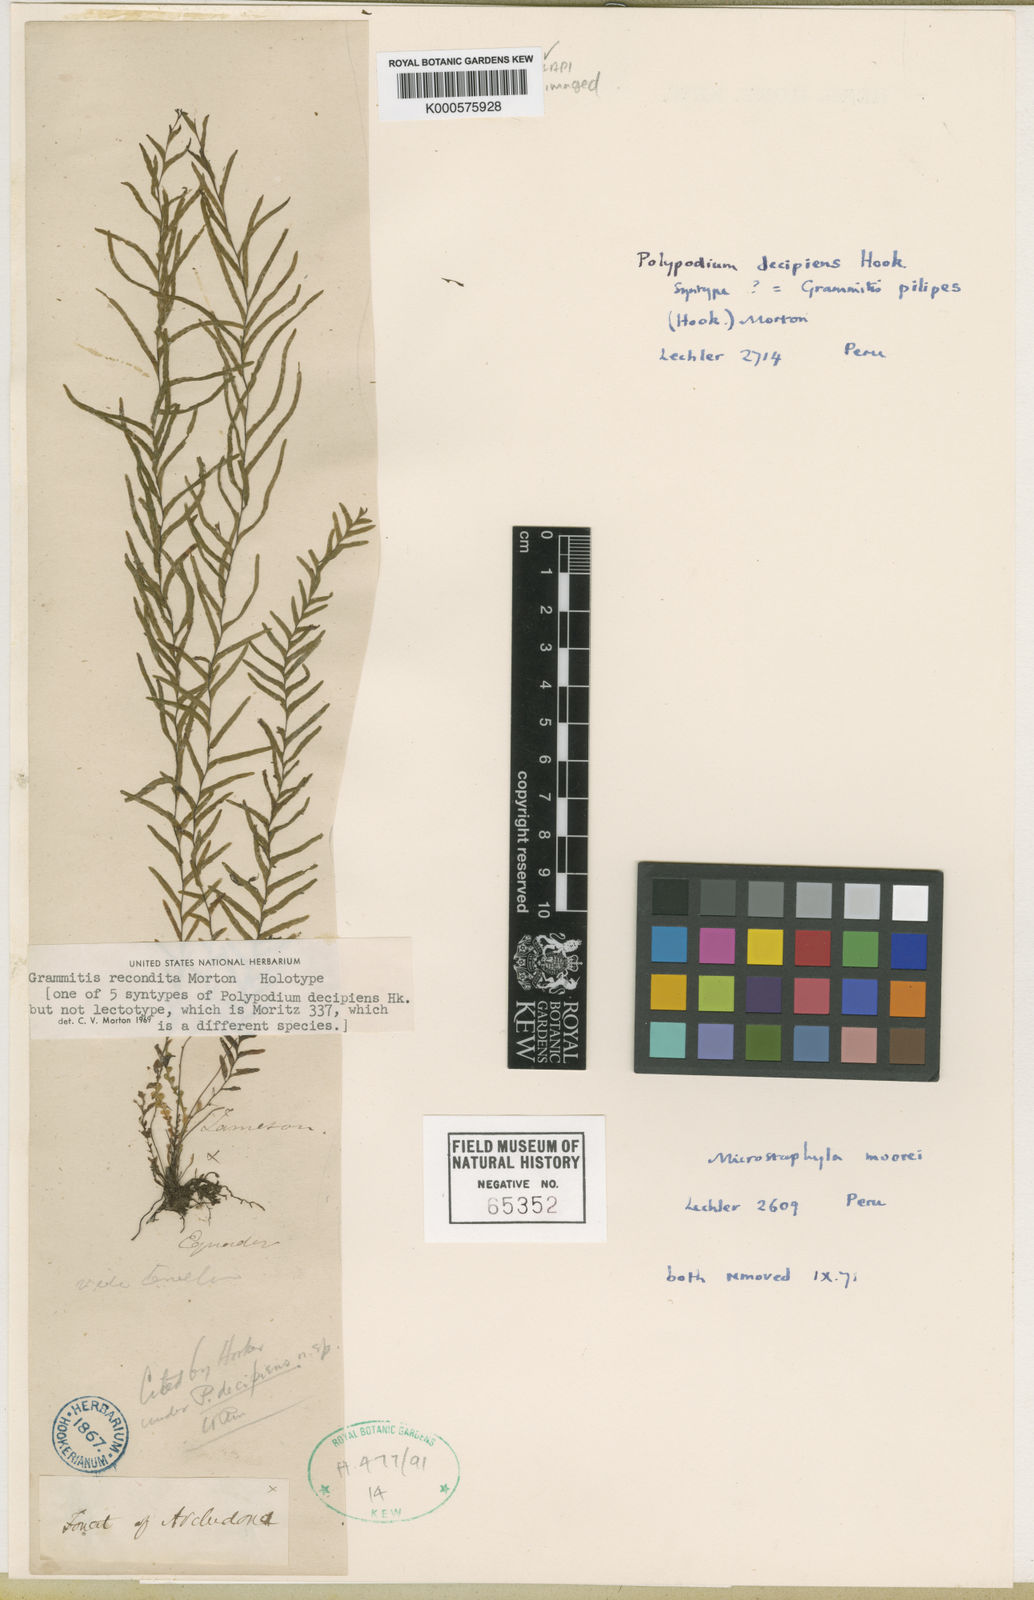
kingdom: Plantae
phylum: Tracheophyta
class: Polypodiopsida
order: Polypodiales
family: Polypodiaceae
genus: Lellingeria
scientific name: Lellingeria
